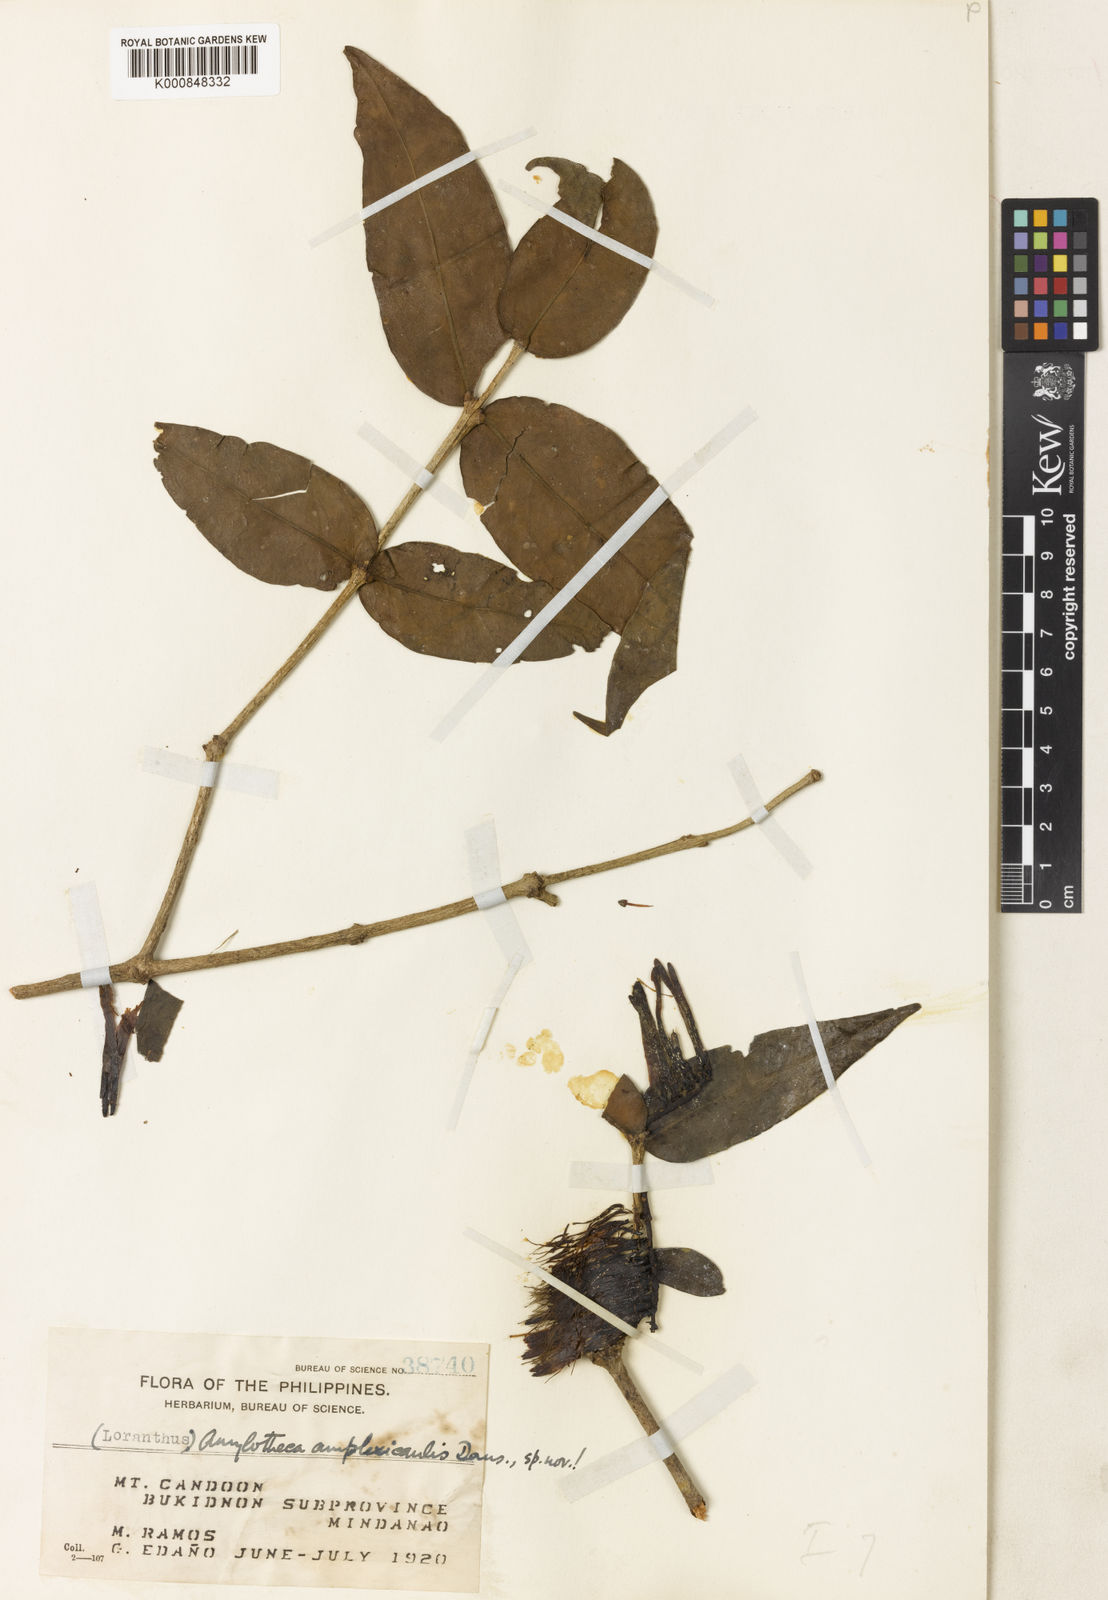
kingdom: Plantae
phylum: Tracheophyta
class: Magnoliopsida
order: Santalales
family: Loranthaceae
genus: Decaisnina
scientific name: Decaisnina amplexicaulis
